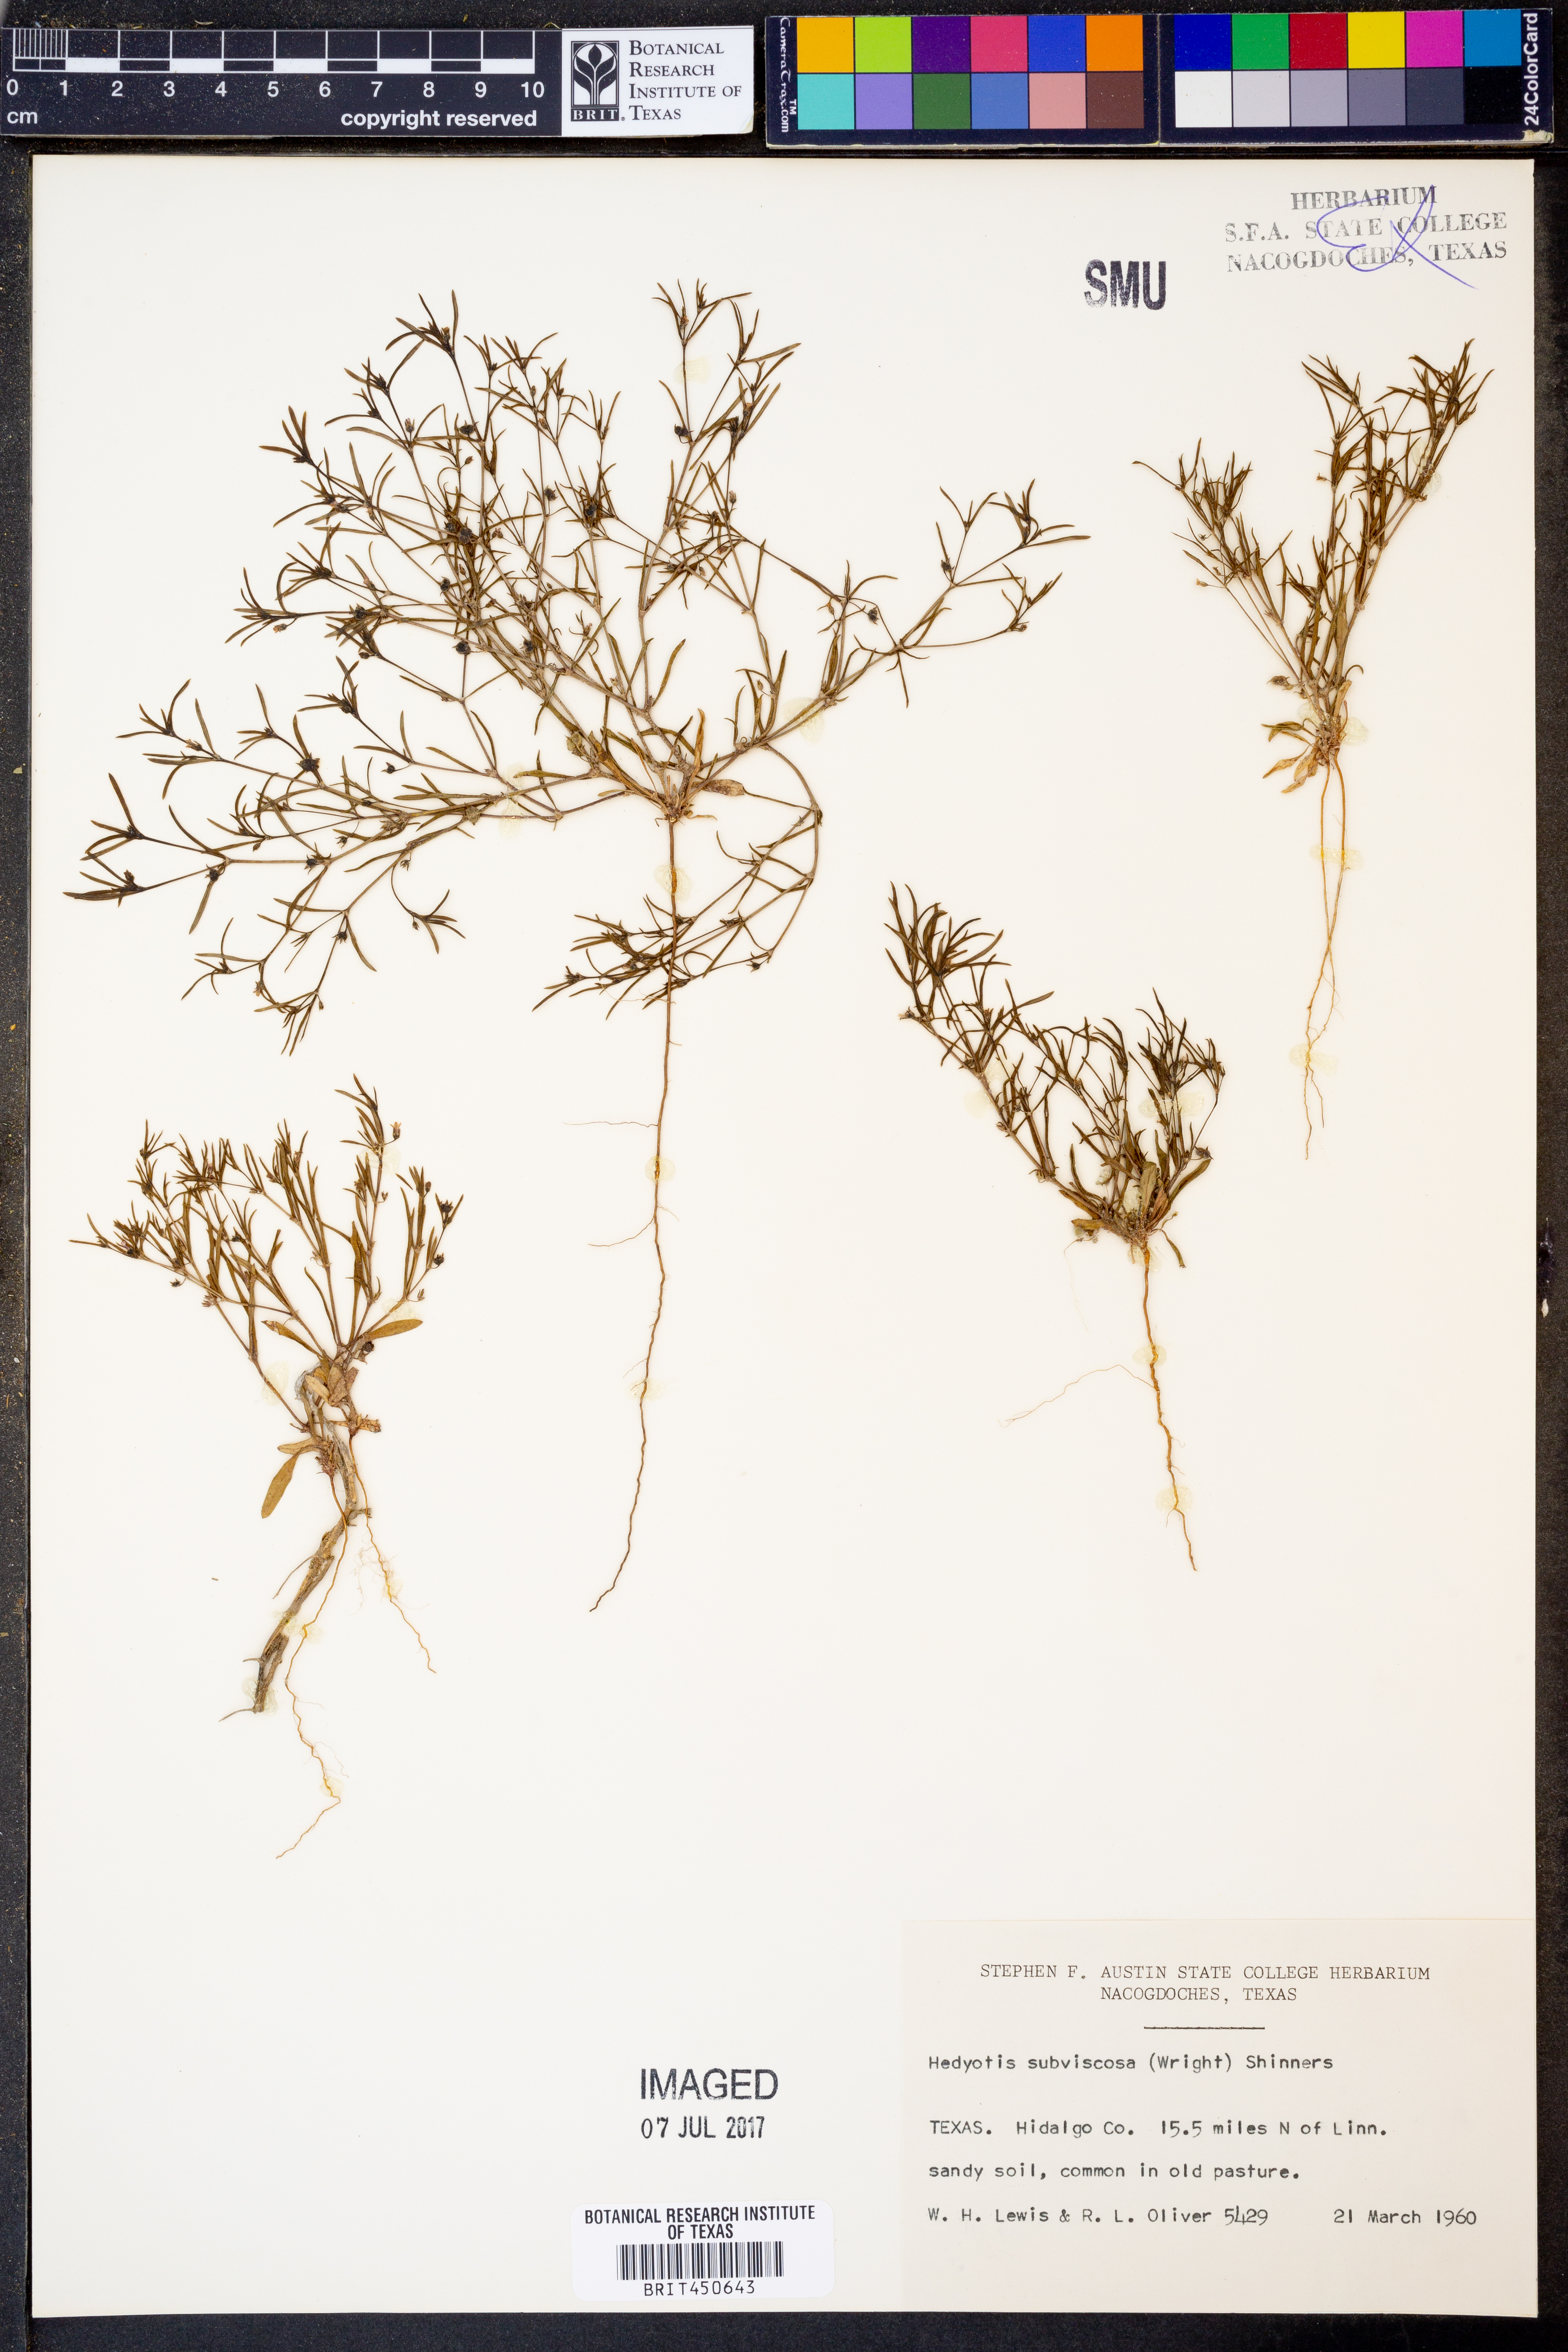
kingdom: Plantae
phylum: Tracheophyta
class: Magnoliopsida
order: Gentianales
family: Rubiaceae
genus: Houstonia
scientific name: Houstonia subviscosa
